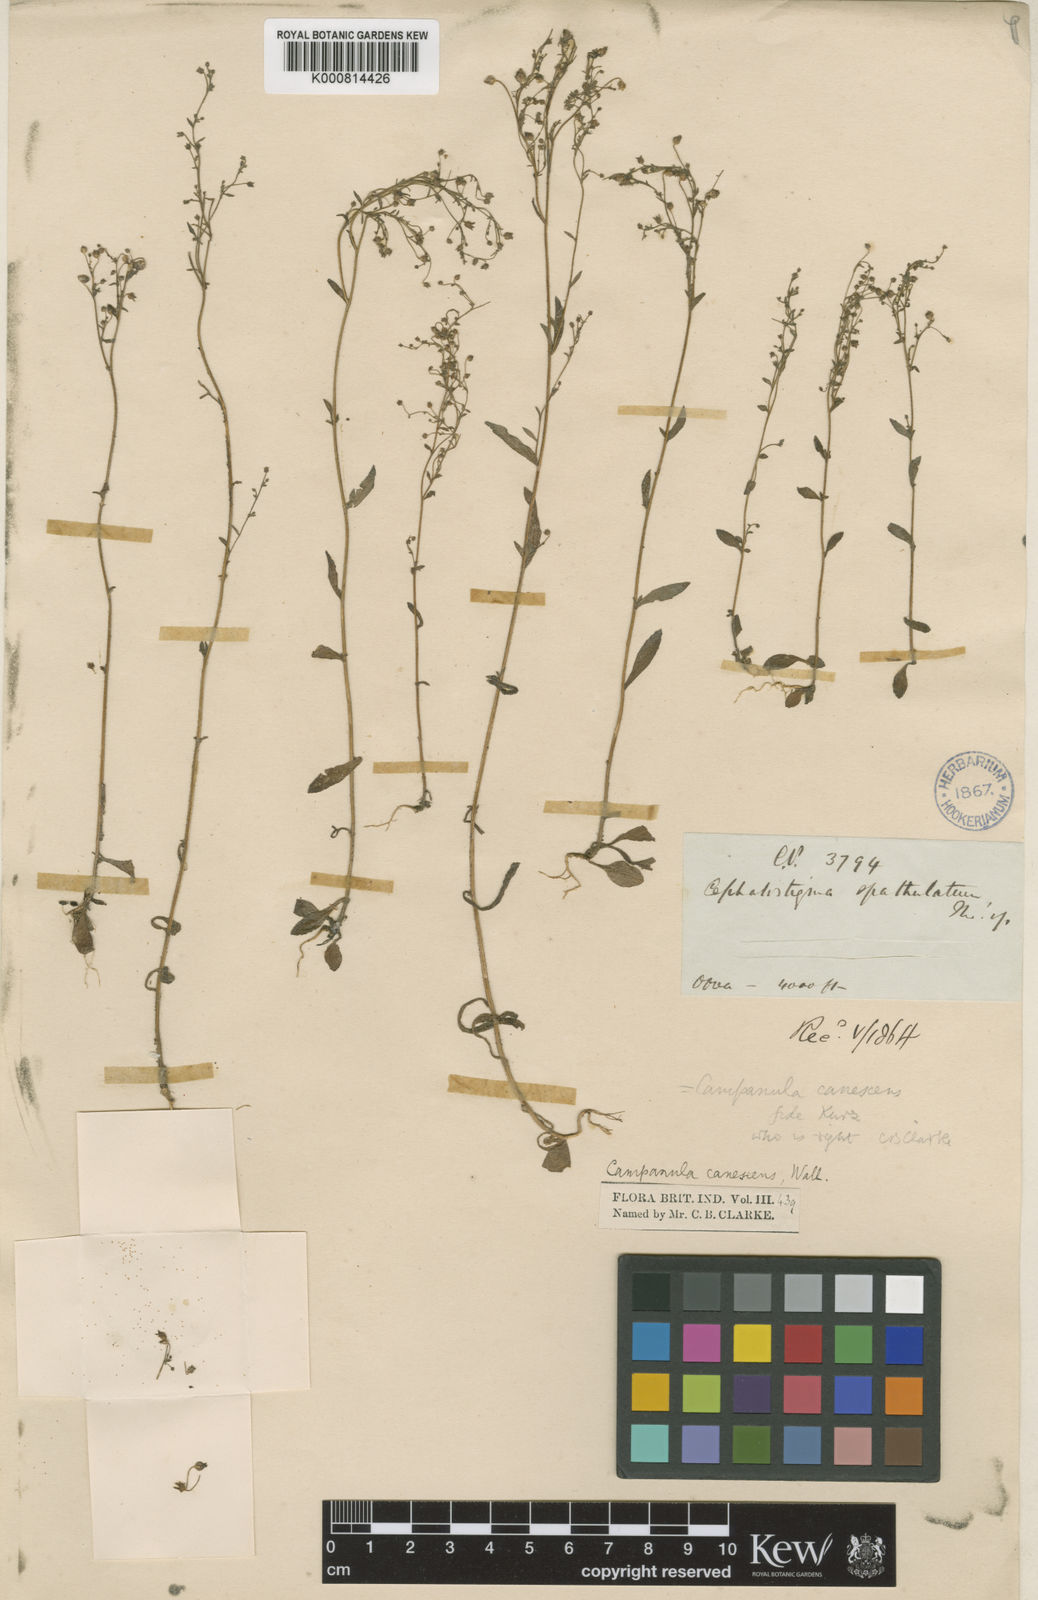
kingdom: Plantae
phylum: Tracheophyta
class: Magnoliopsida
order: Asterales
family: Campanulaceae
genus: Campanula
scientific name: Campanula dimorphantha
